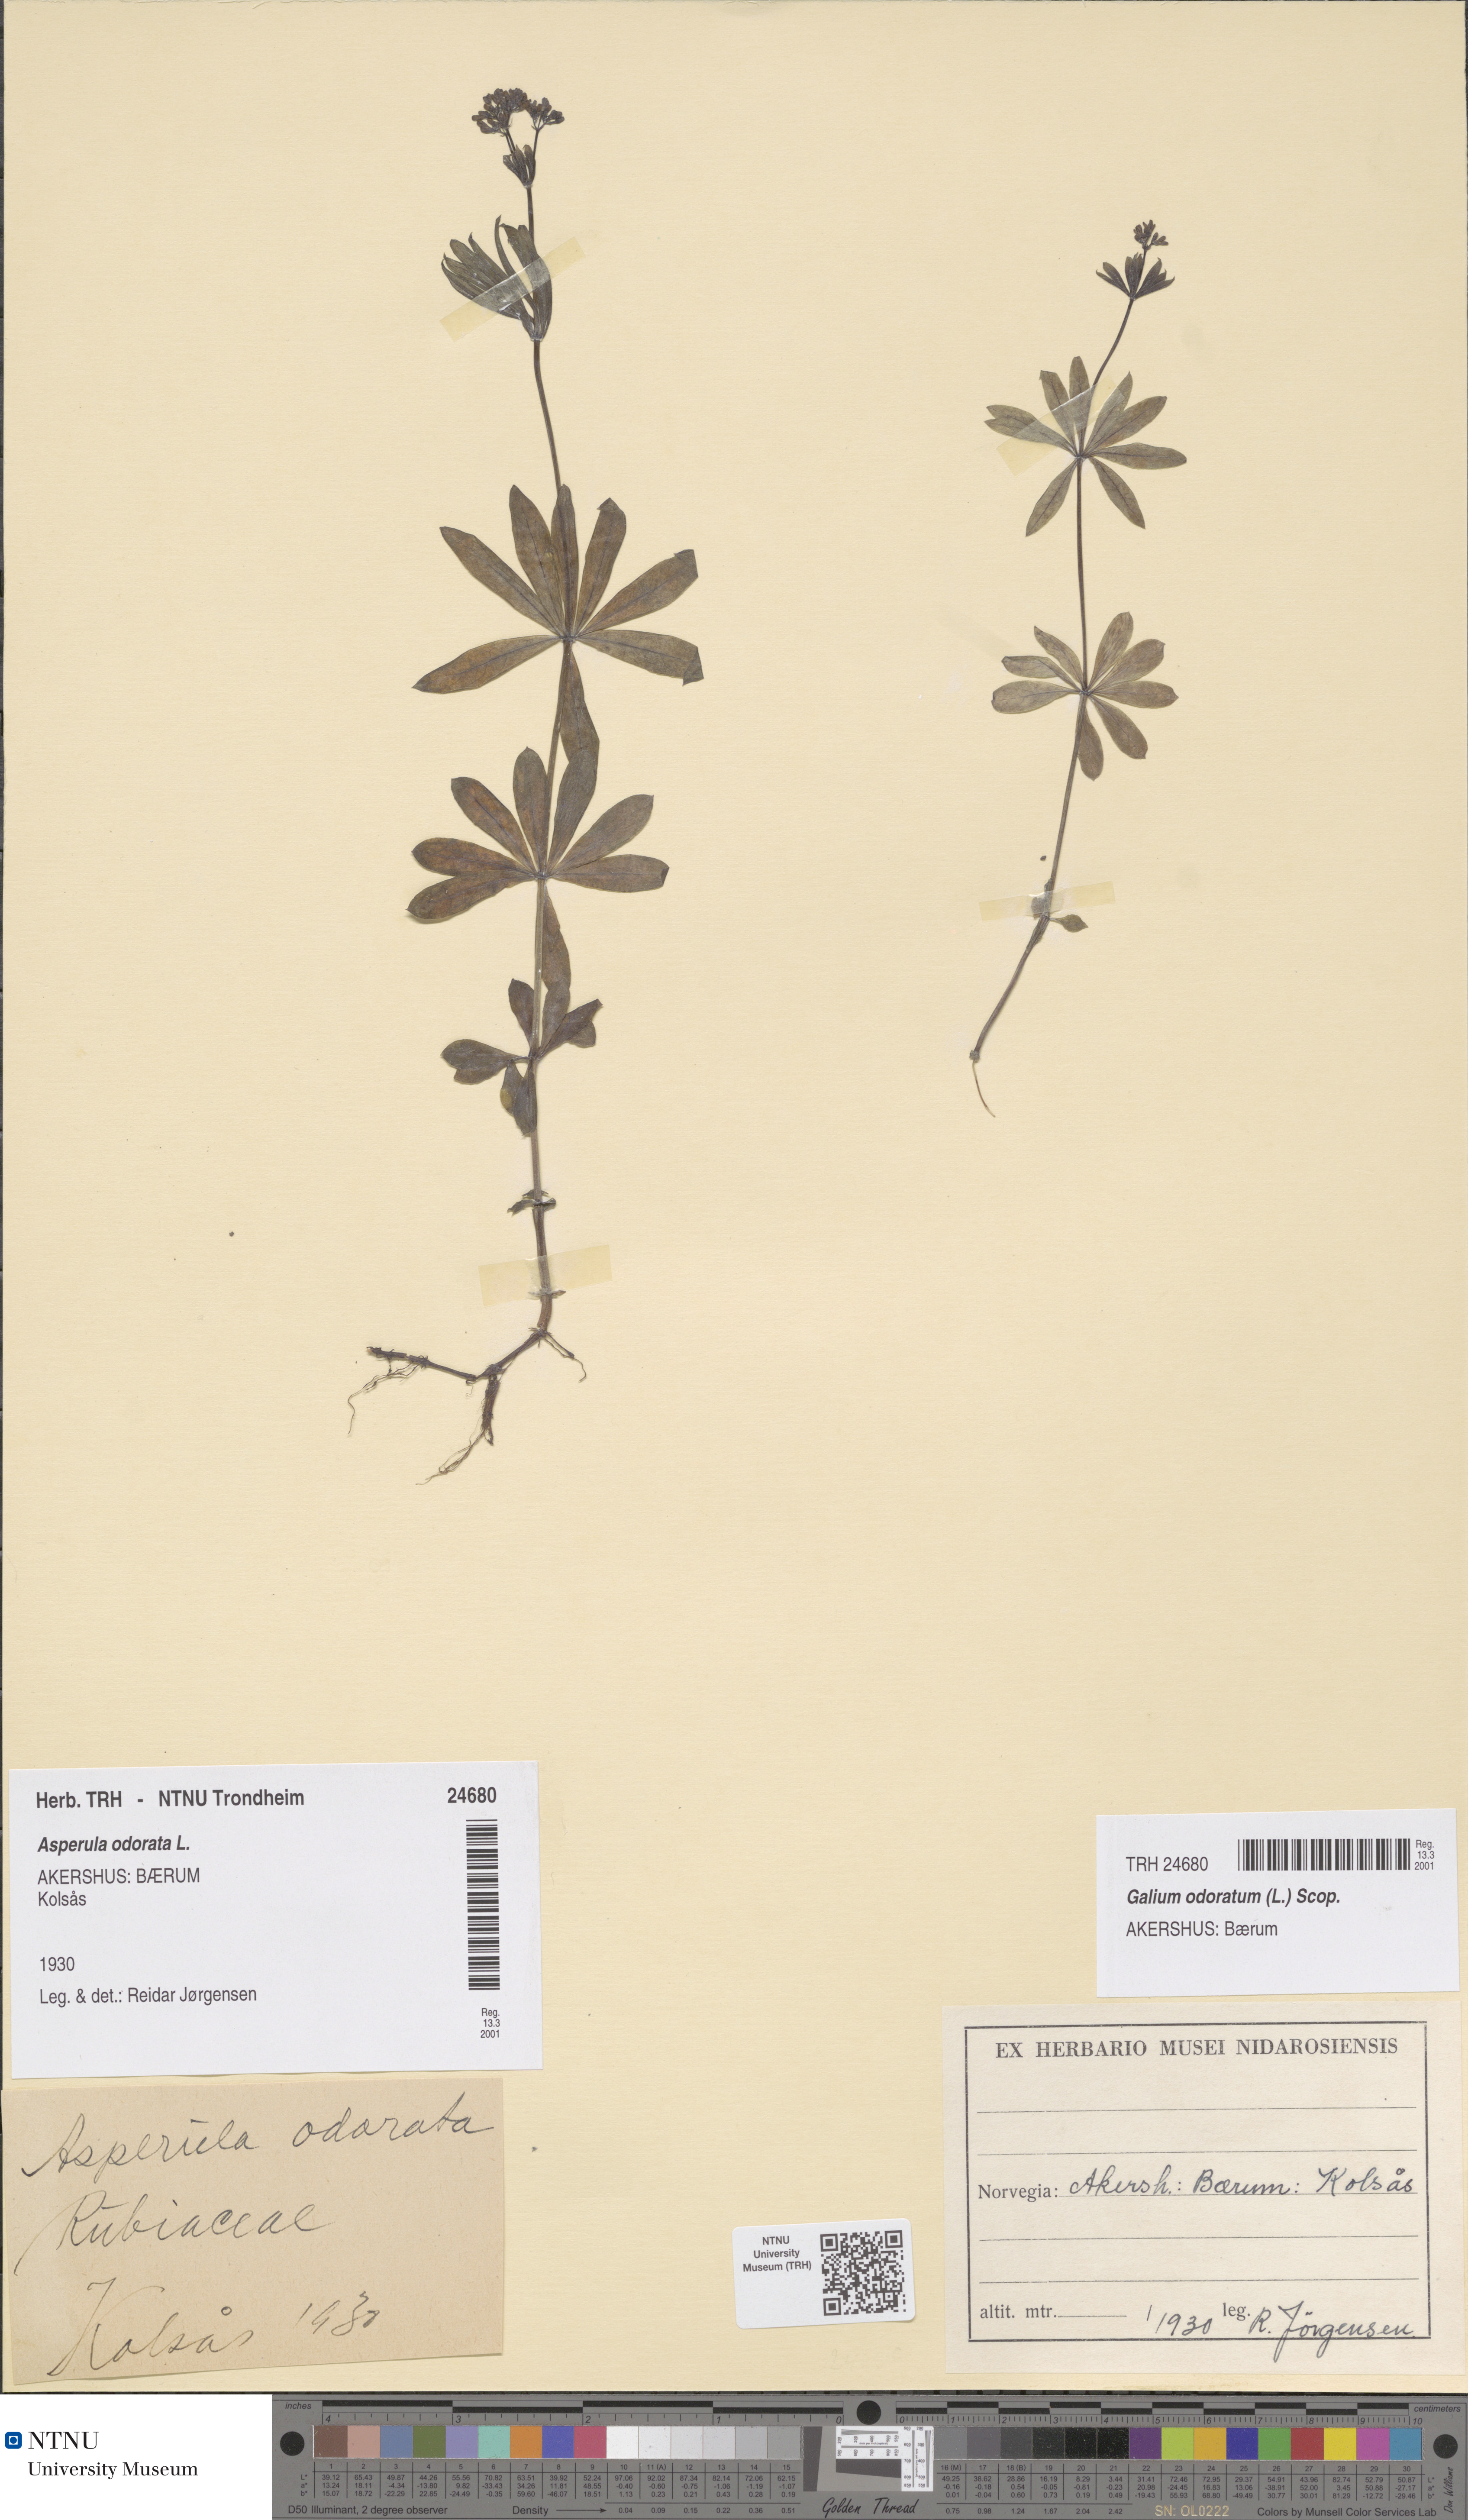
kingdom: Plantae
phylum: Tracheophyta
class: Magnoliopsida
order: Gentianales
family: Rubiaceae
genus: Galium
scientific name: Galium odoratum
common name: Sweet woodruff
